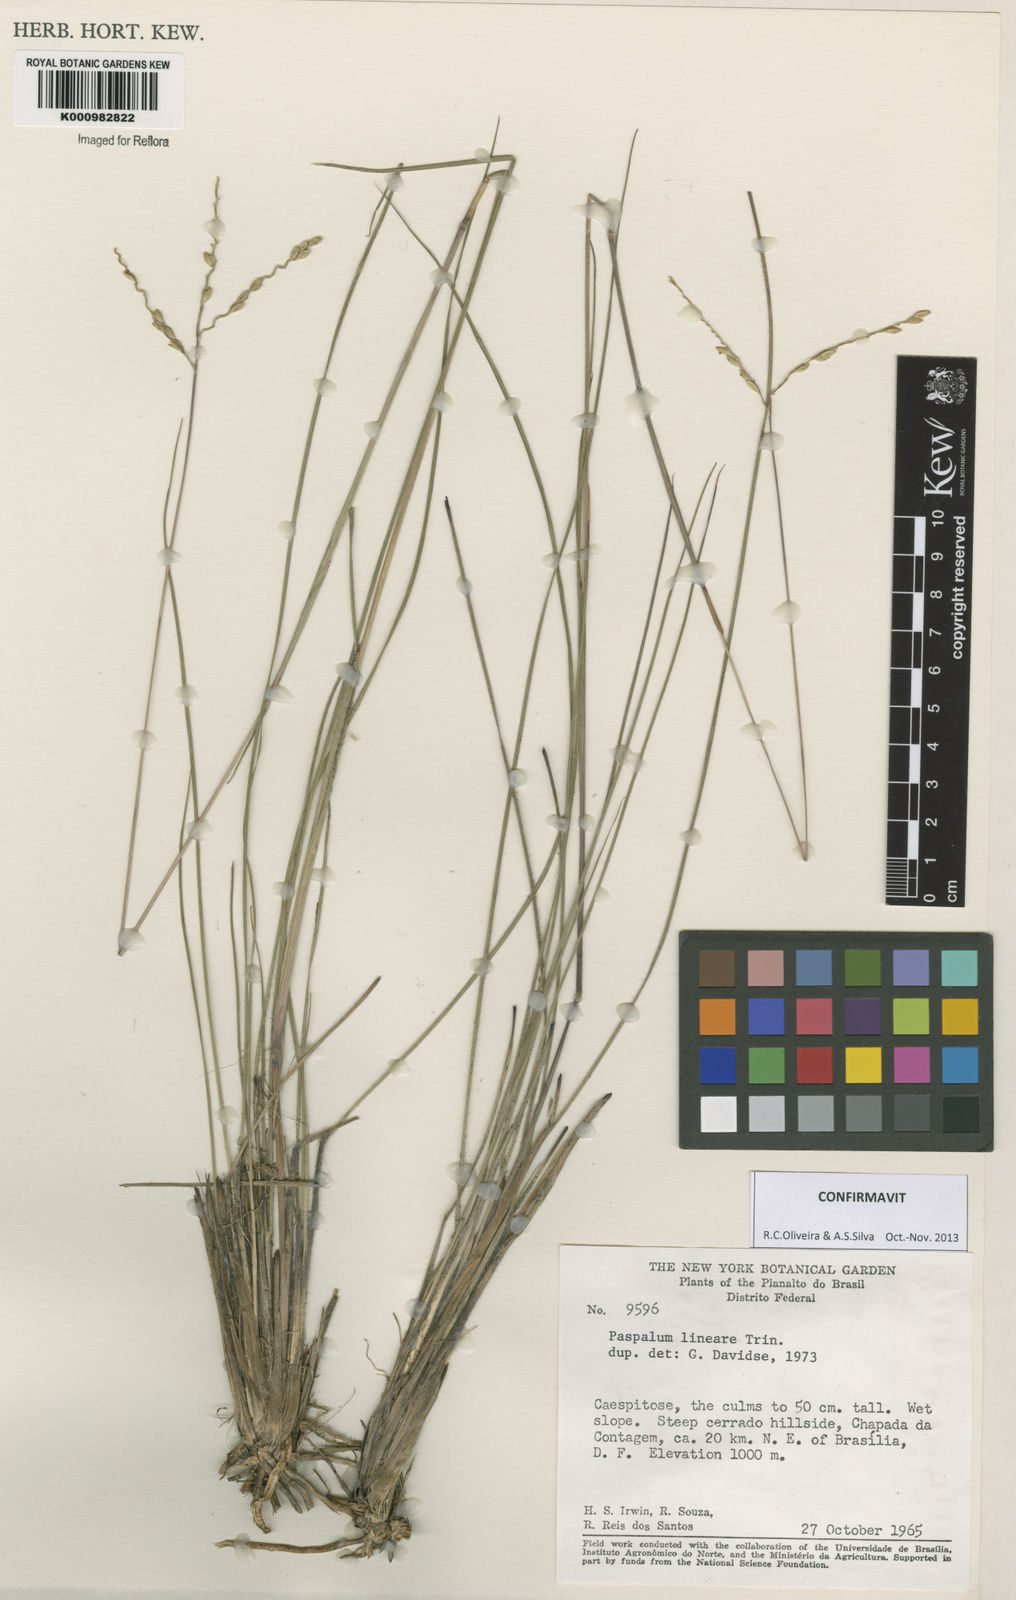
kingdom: Plantae
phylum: Tracheophyta
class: Liliopsida
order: Poales
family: Poaceae
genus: Paspalum
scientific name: Paspalum lineare
